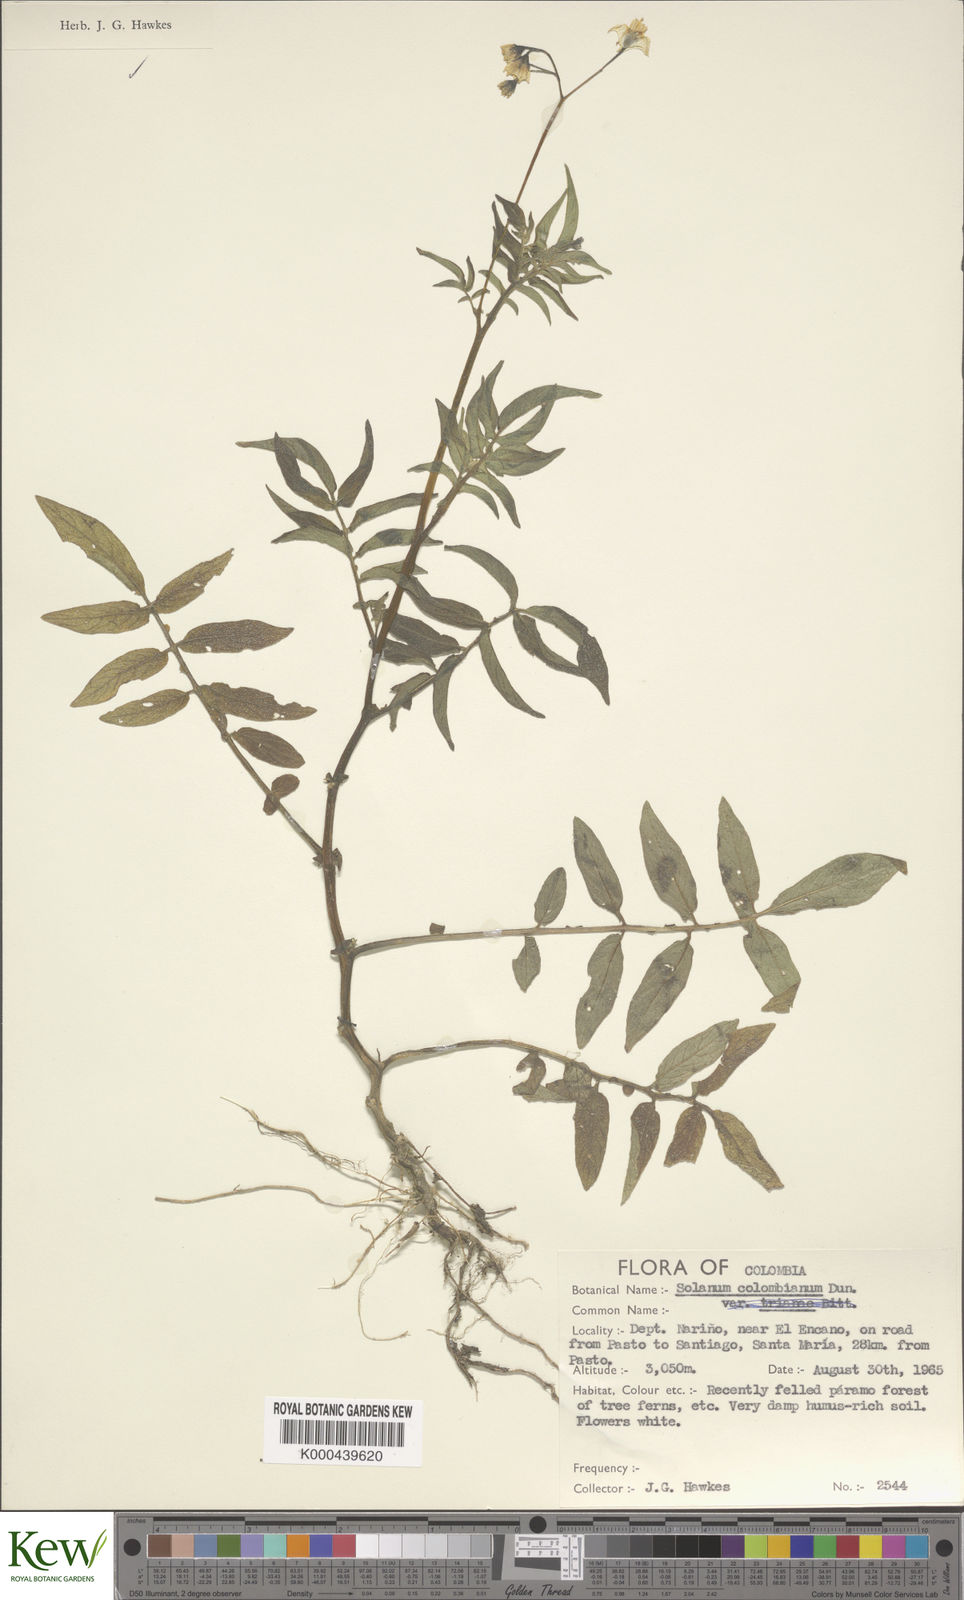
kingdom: Plantae
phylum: Tracheophyta
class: Magnoliopsida
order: Solanales
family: Solanaceae
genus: Solanum
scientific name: Solanum colombianum
